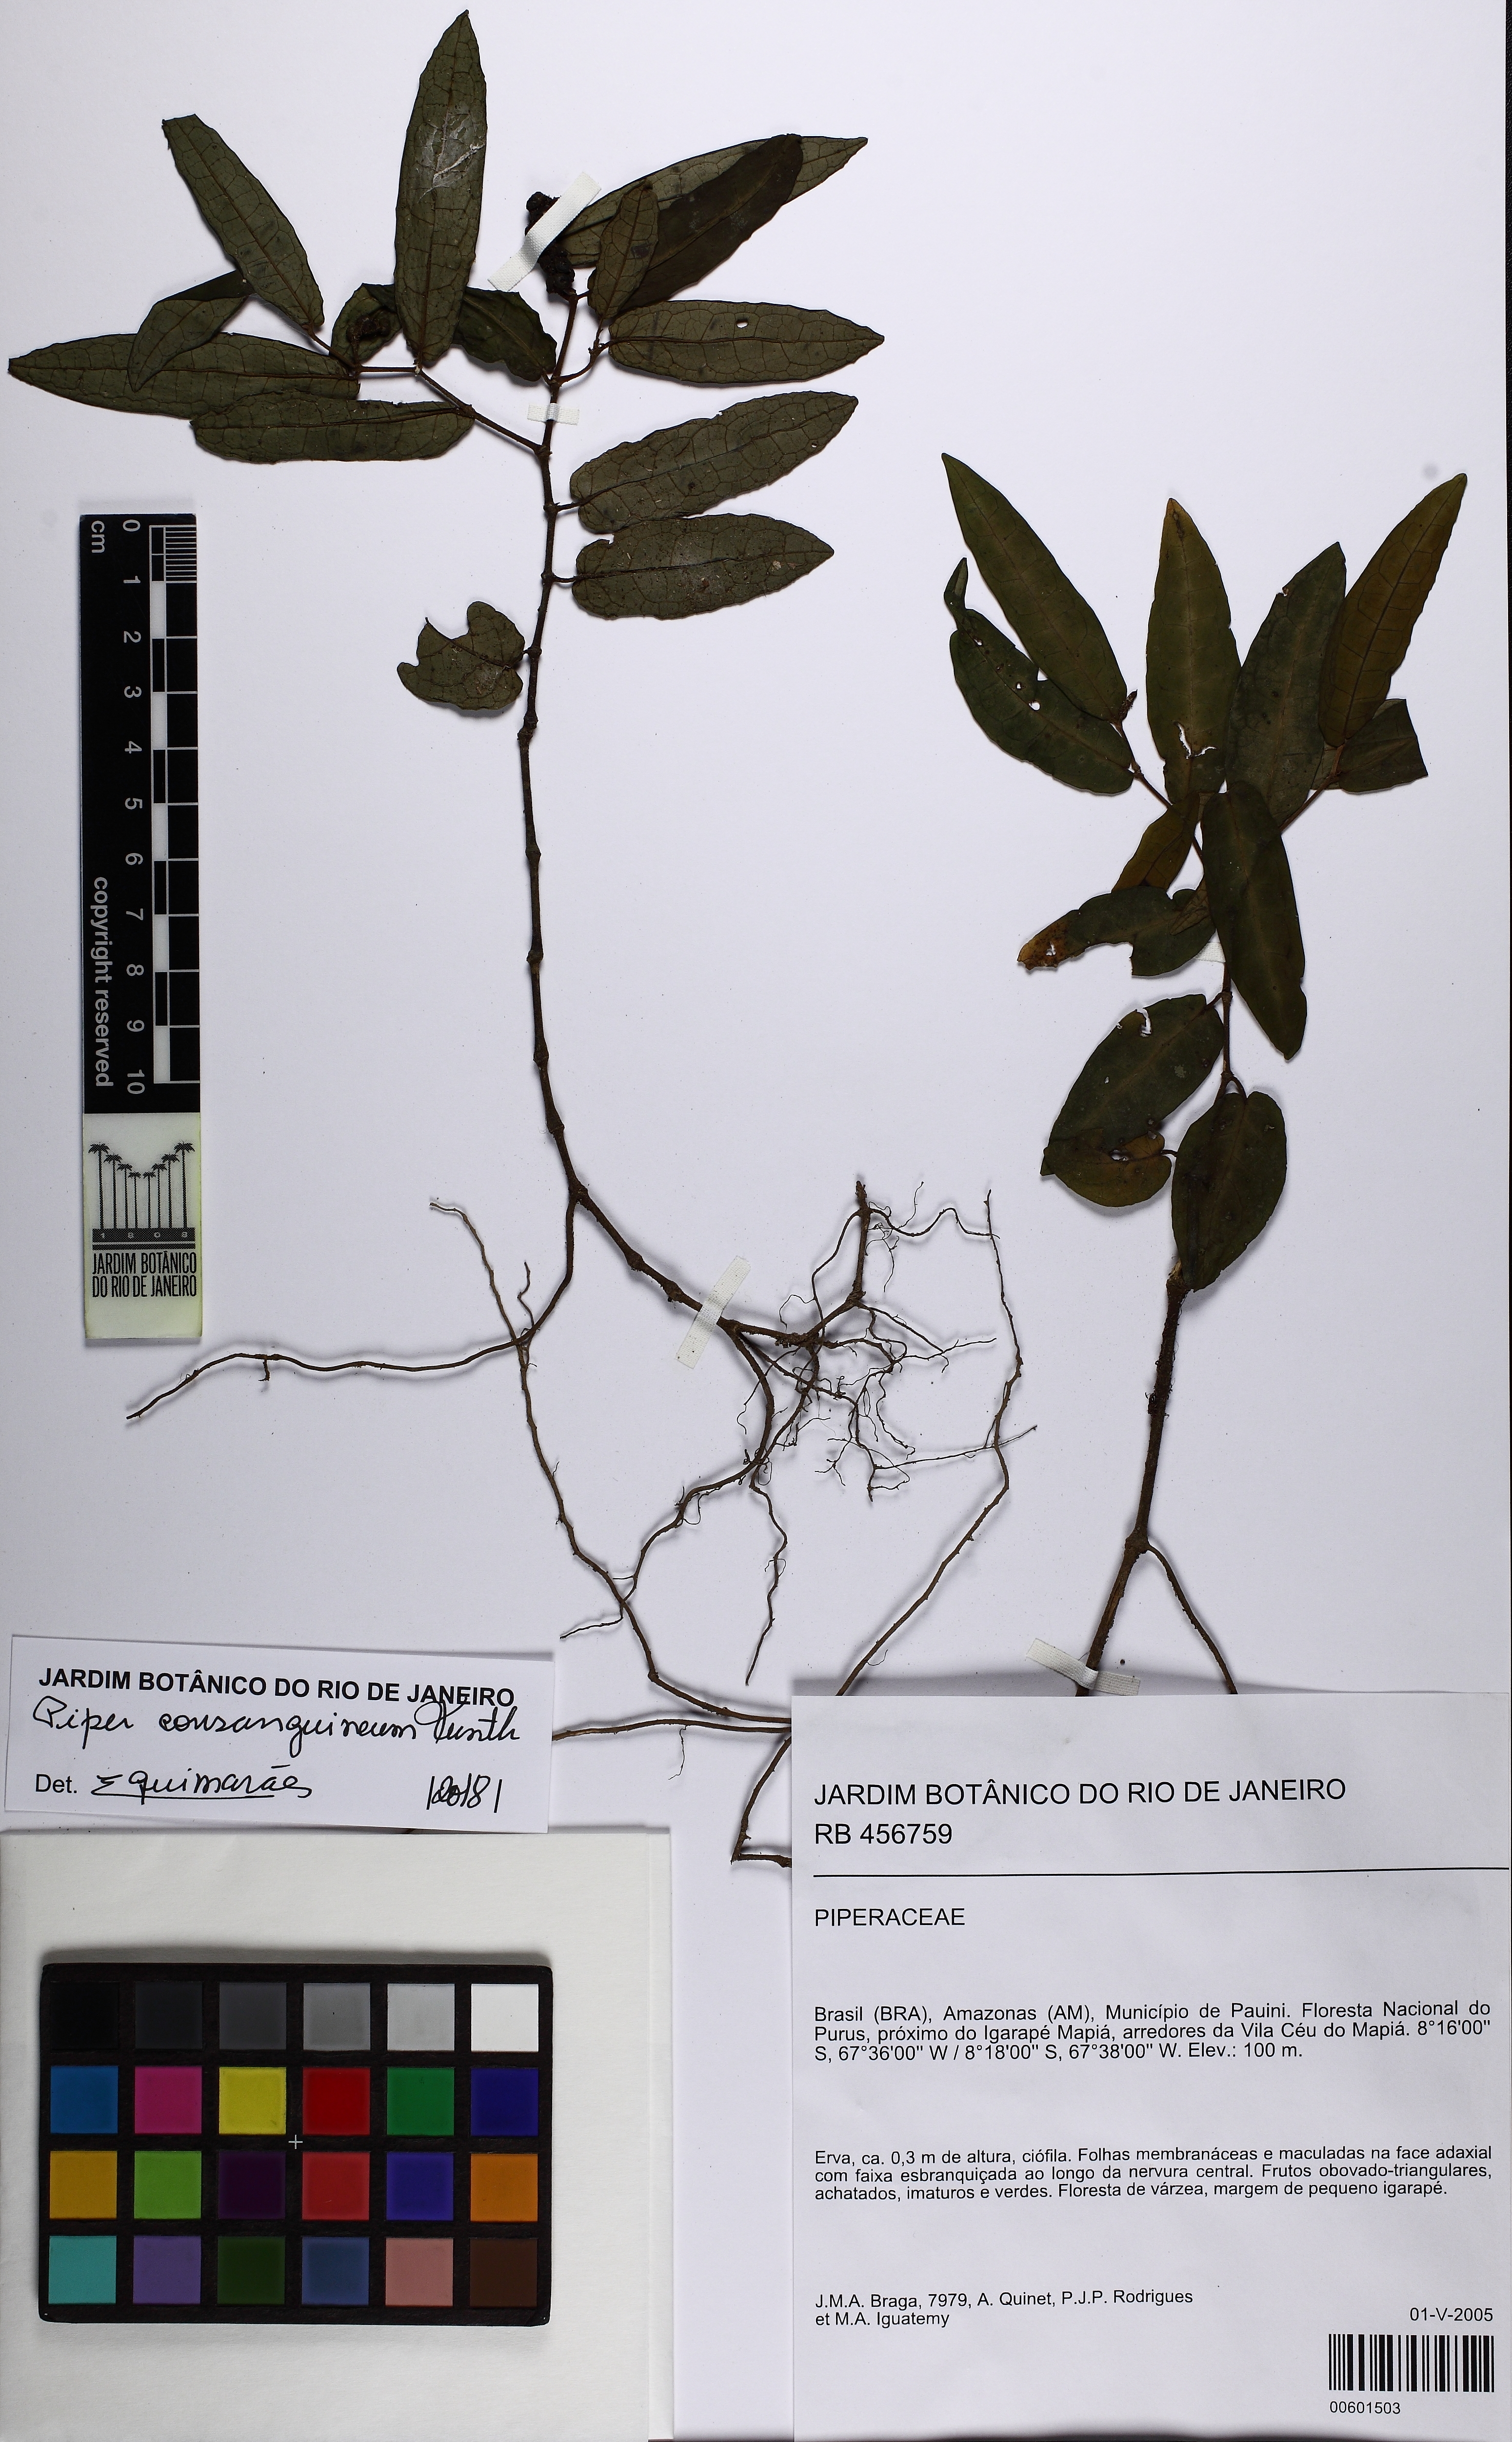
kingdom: Plantae
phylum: Tracheophyta
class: Magnoliopsida
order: Piperales
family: Piperaceae
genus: Piper
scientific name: Piper consanguineum
